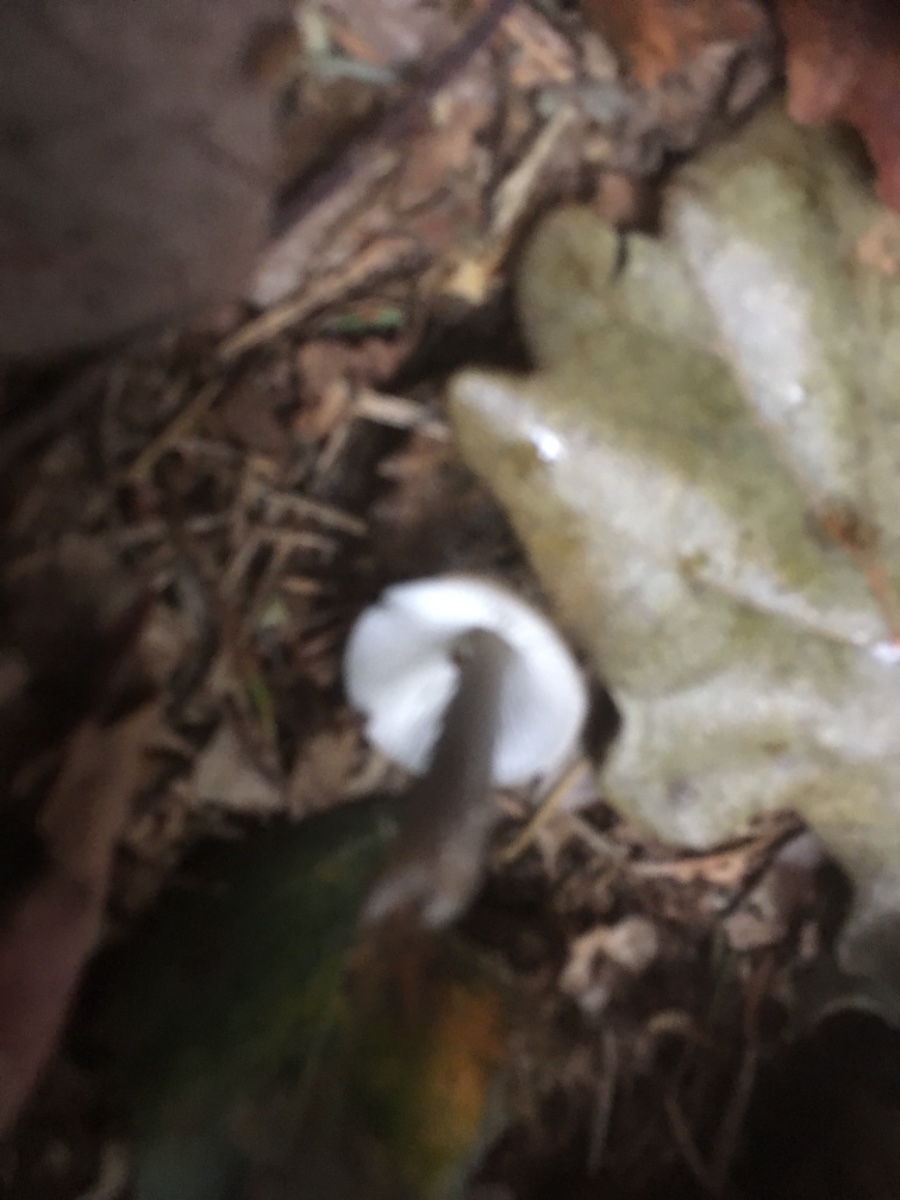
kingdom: Fungi
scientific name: Fungi
